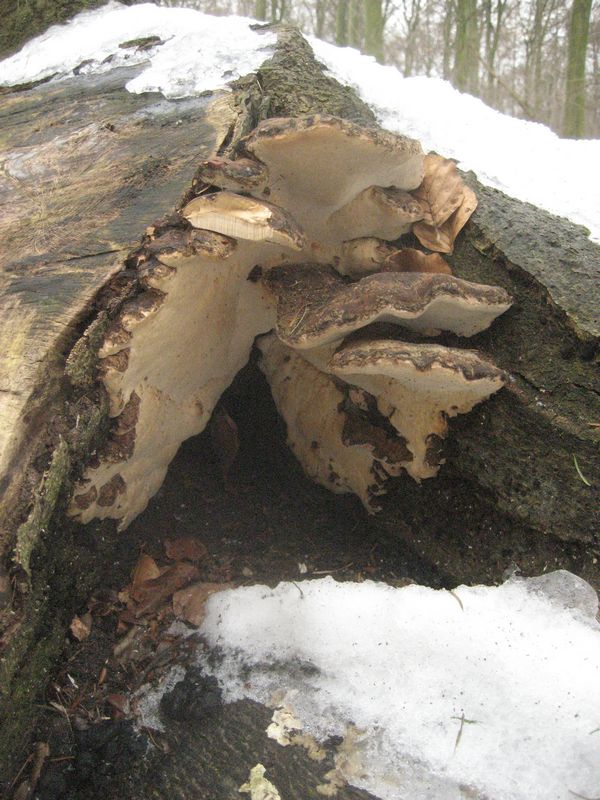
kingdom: Fungi
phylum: Basidiomycota
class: Agaricomycetes
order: Polyporales
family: Ischnodermataceae
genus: Ischnoderma
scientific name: Ischnoderma resinosum
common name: løv-tjæreporesvamp
